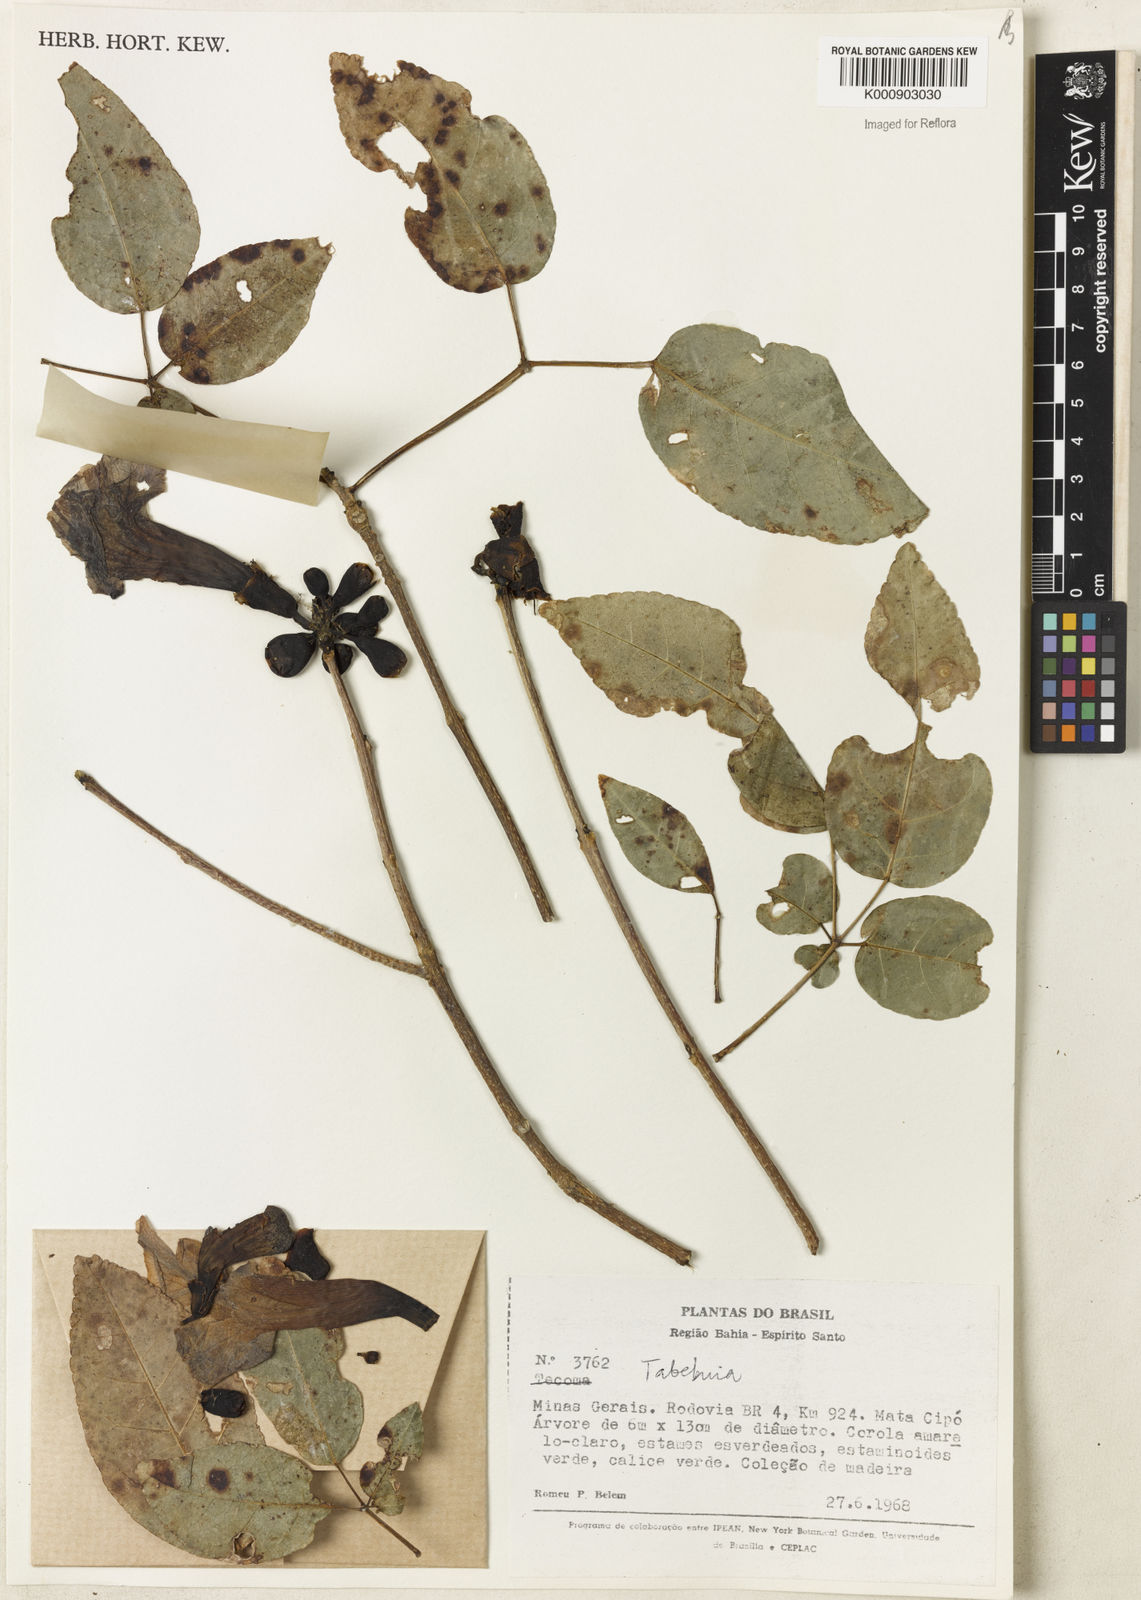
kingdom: Plantae
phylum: Tracheophyta
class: Magnoliopsida
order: Lamiales
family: Bignoniaceae
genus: Tabebuia
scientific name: Tabebuia
